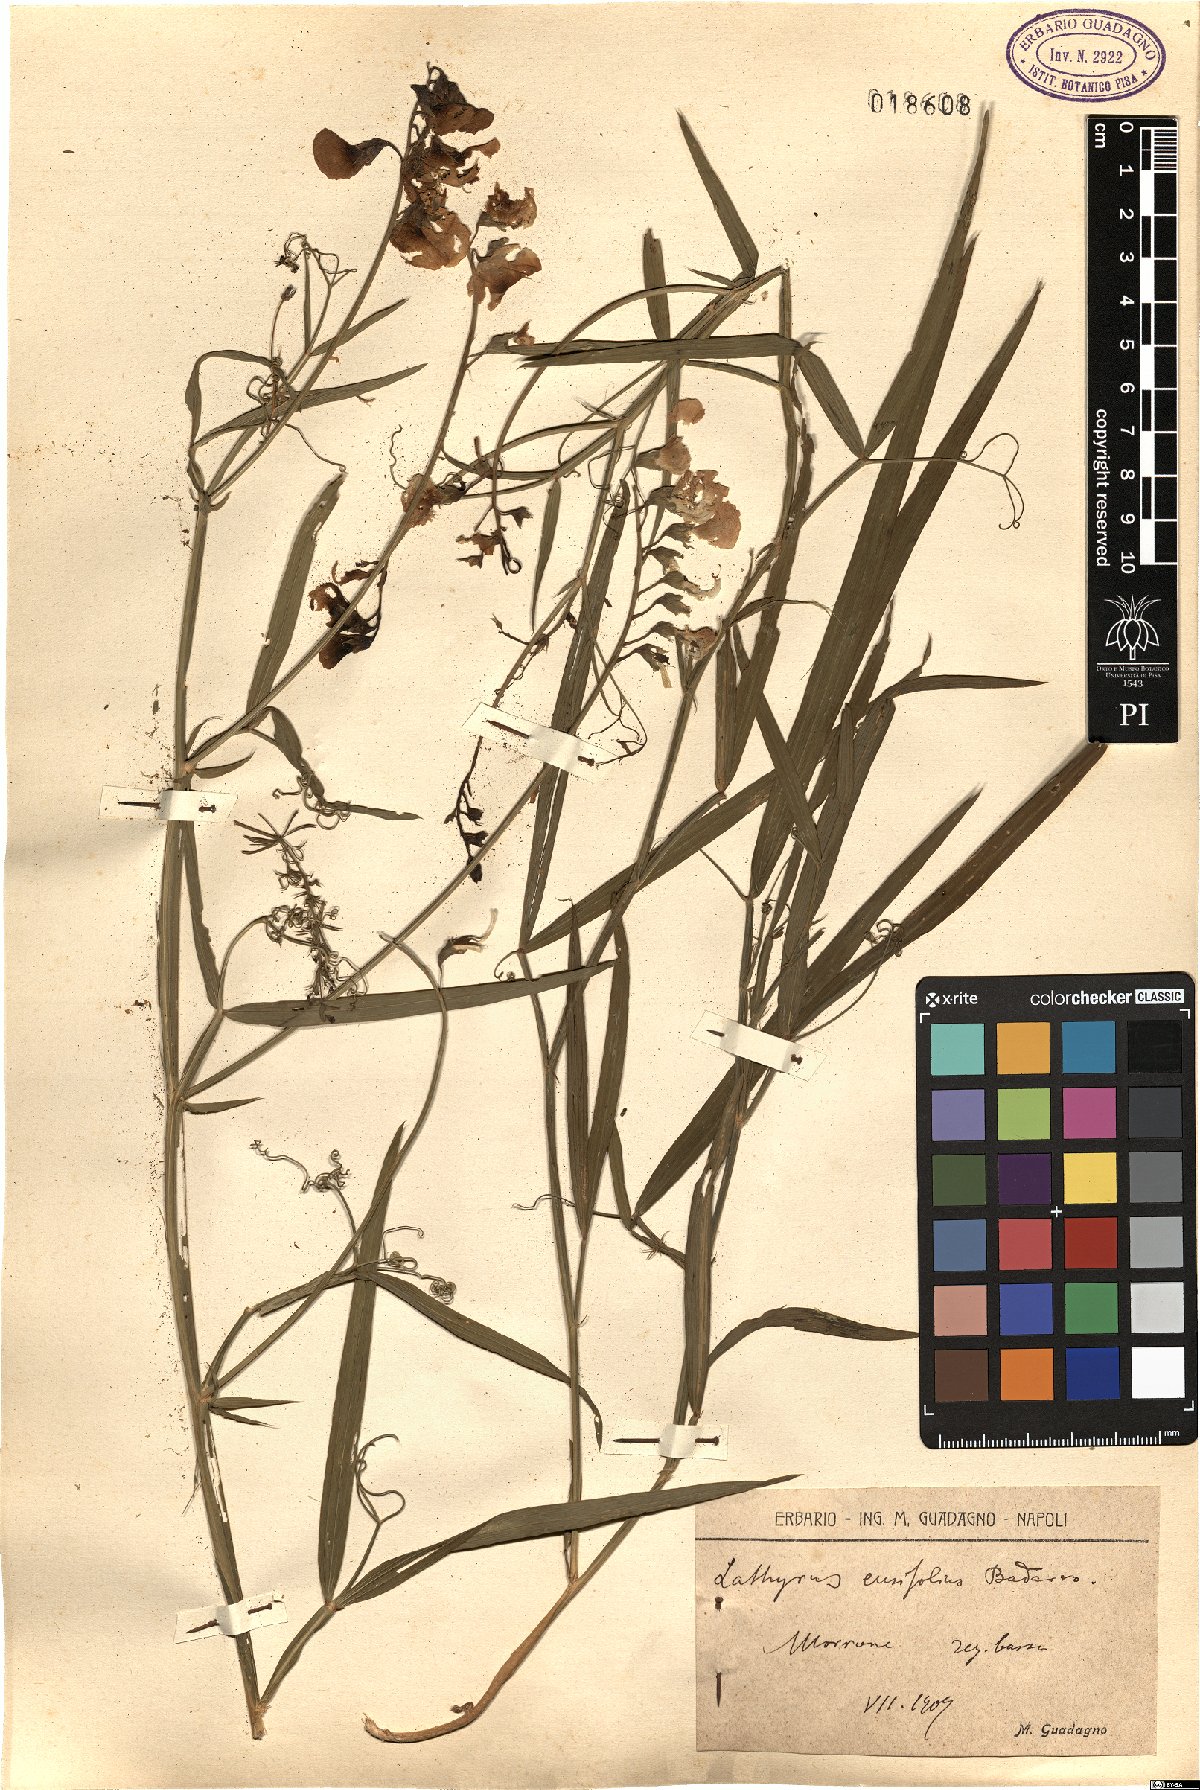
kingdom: Plantae
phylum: Tracheophyta
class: Magnoliopsida
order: Fabales
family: Fabaceae
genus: Lathyrus
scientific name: Lathyrus
